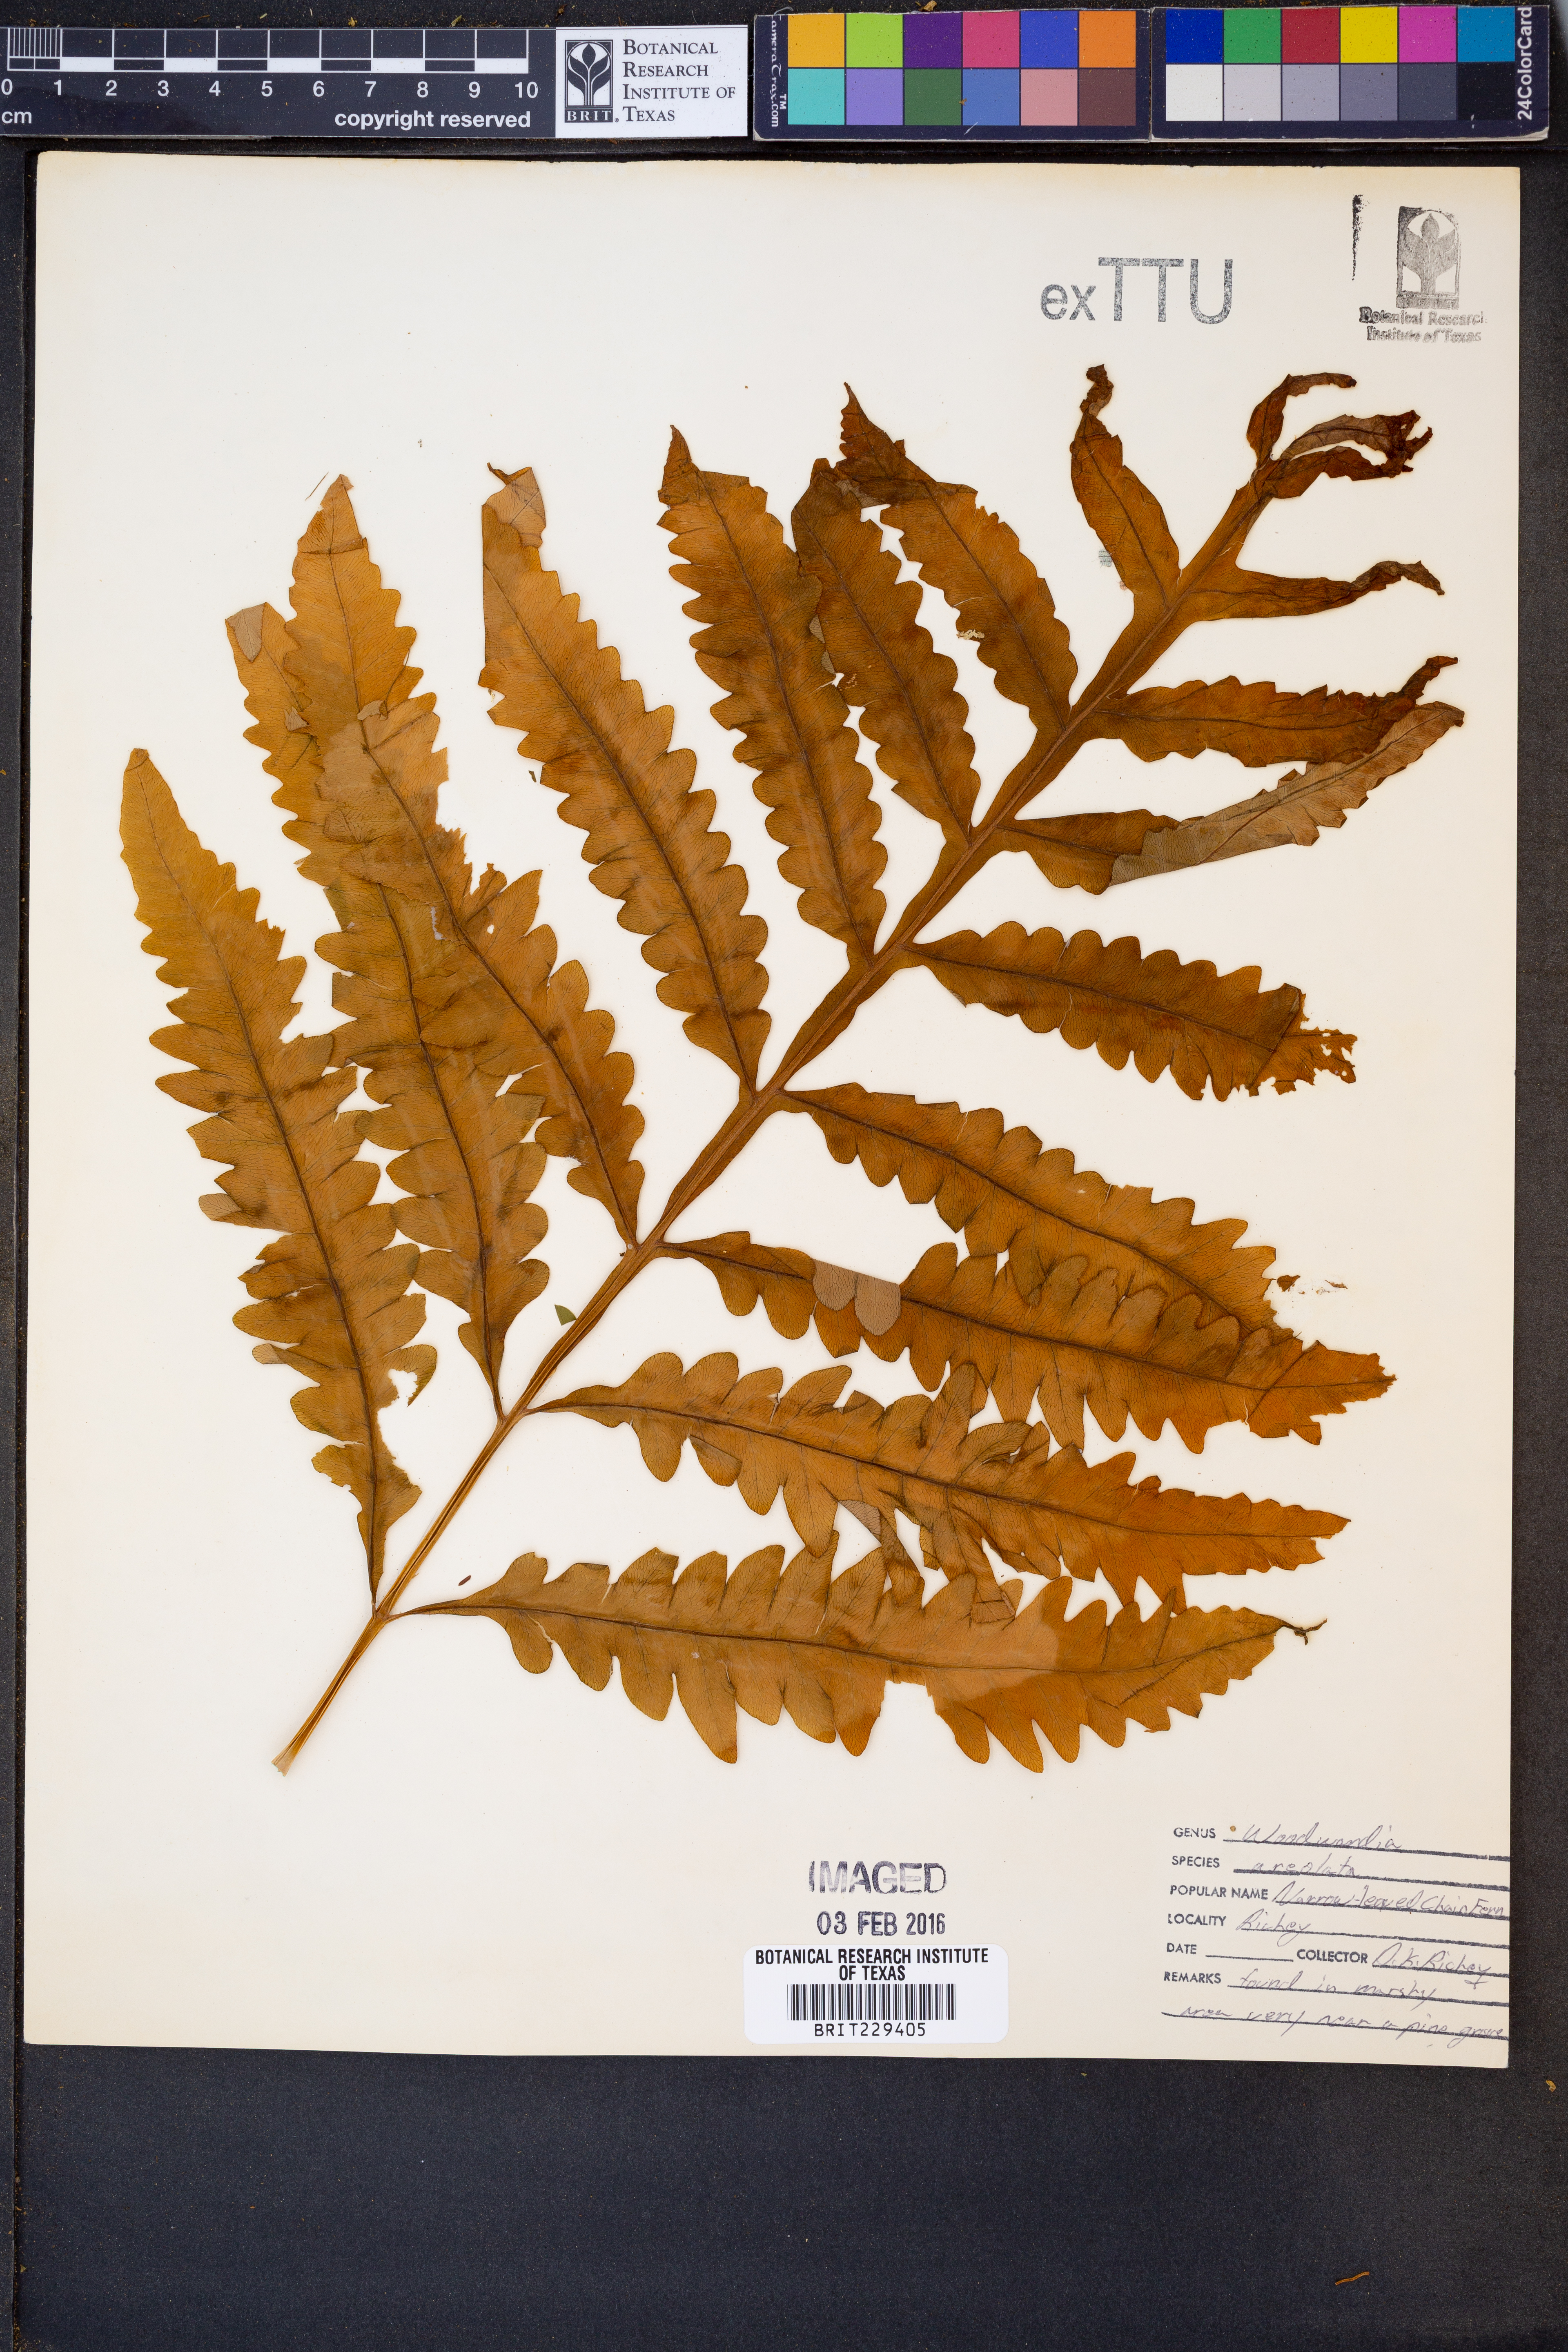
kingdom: Plantae
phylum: Tracheophyta
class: Polypodiopsida
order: Polypodiales
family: Blechnaceae
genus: Lorinseria
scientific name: Lorinseria areolata
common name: Dwarf chain fern
